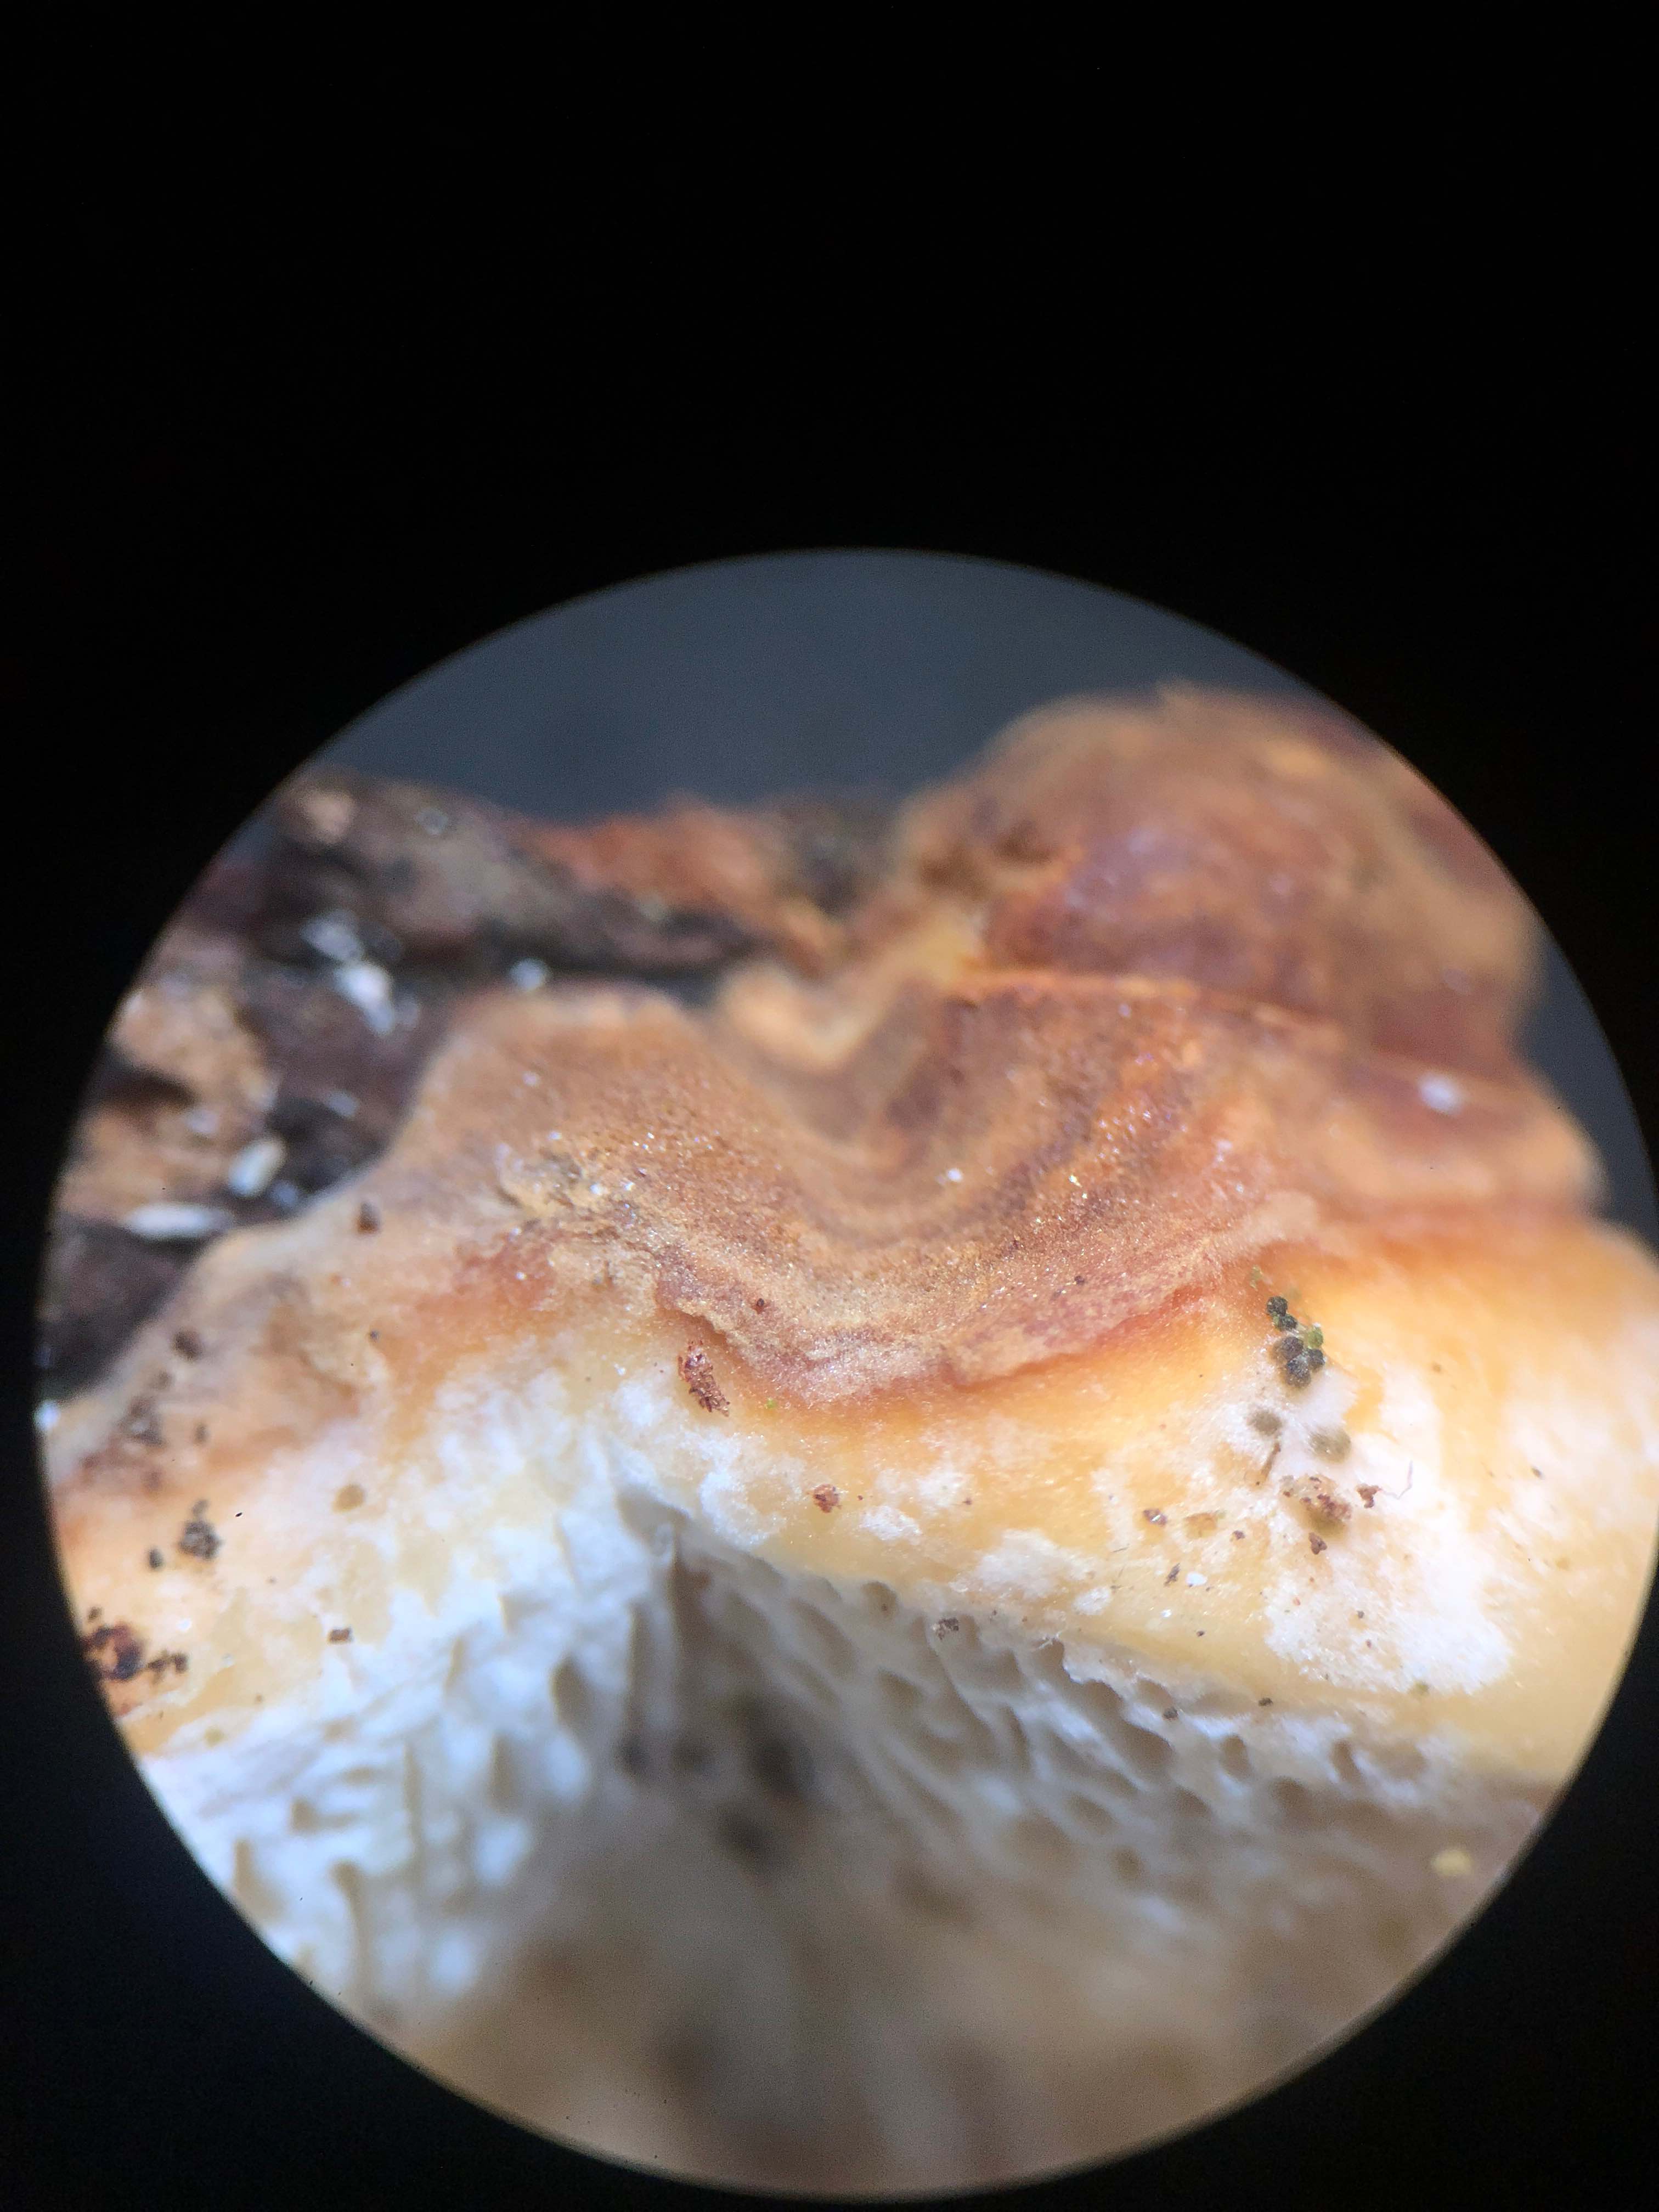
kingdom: Fungi
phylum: Basidiomycota
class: Agaricomycetes
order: Russulales
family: Bondarzewiaceae
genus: Heterobasidion
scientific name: Heterobasidion
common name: rodfordærver
